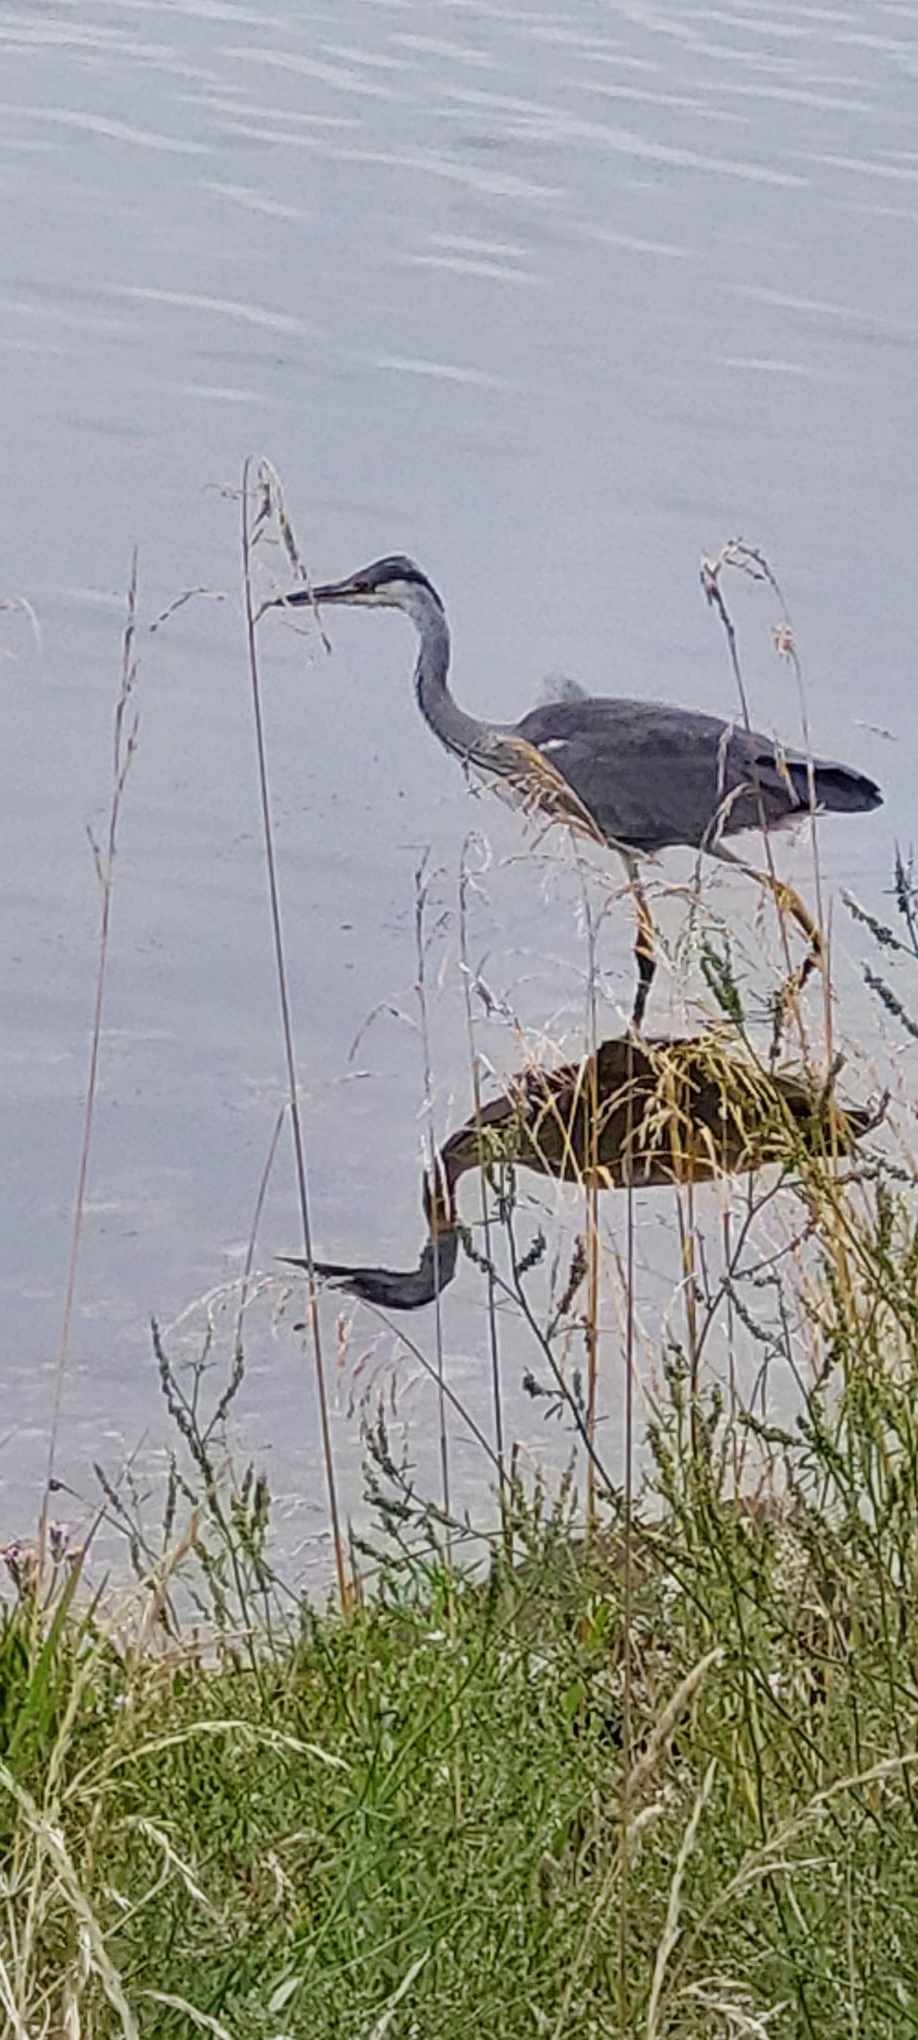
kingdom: Animalia
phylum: Chordata
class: Aves
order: Pelecaniformes
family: Ardeidae
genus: Ardea
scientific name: Ardea cinerea
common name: Fiskehejre
